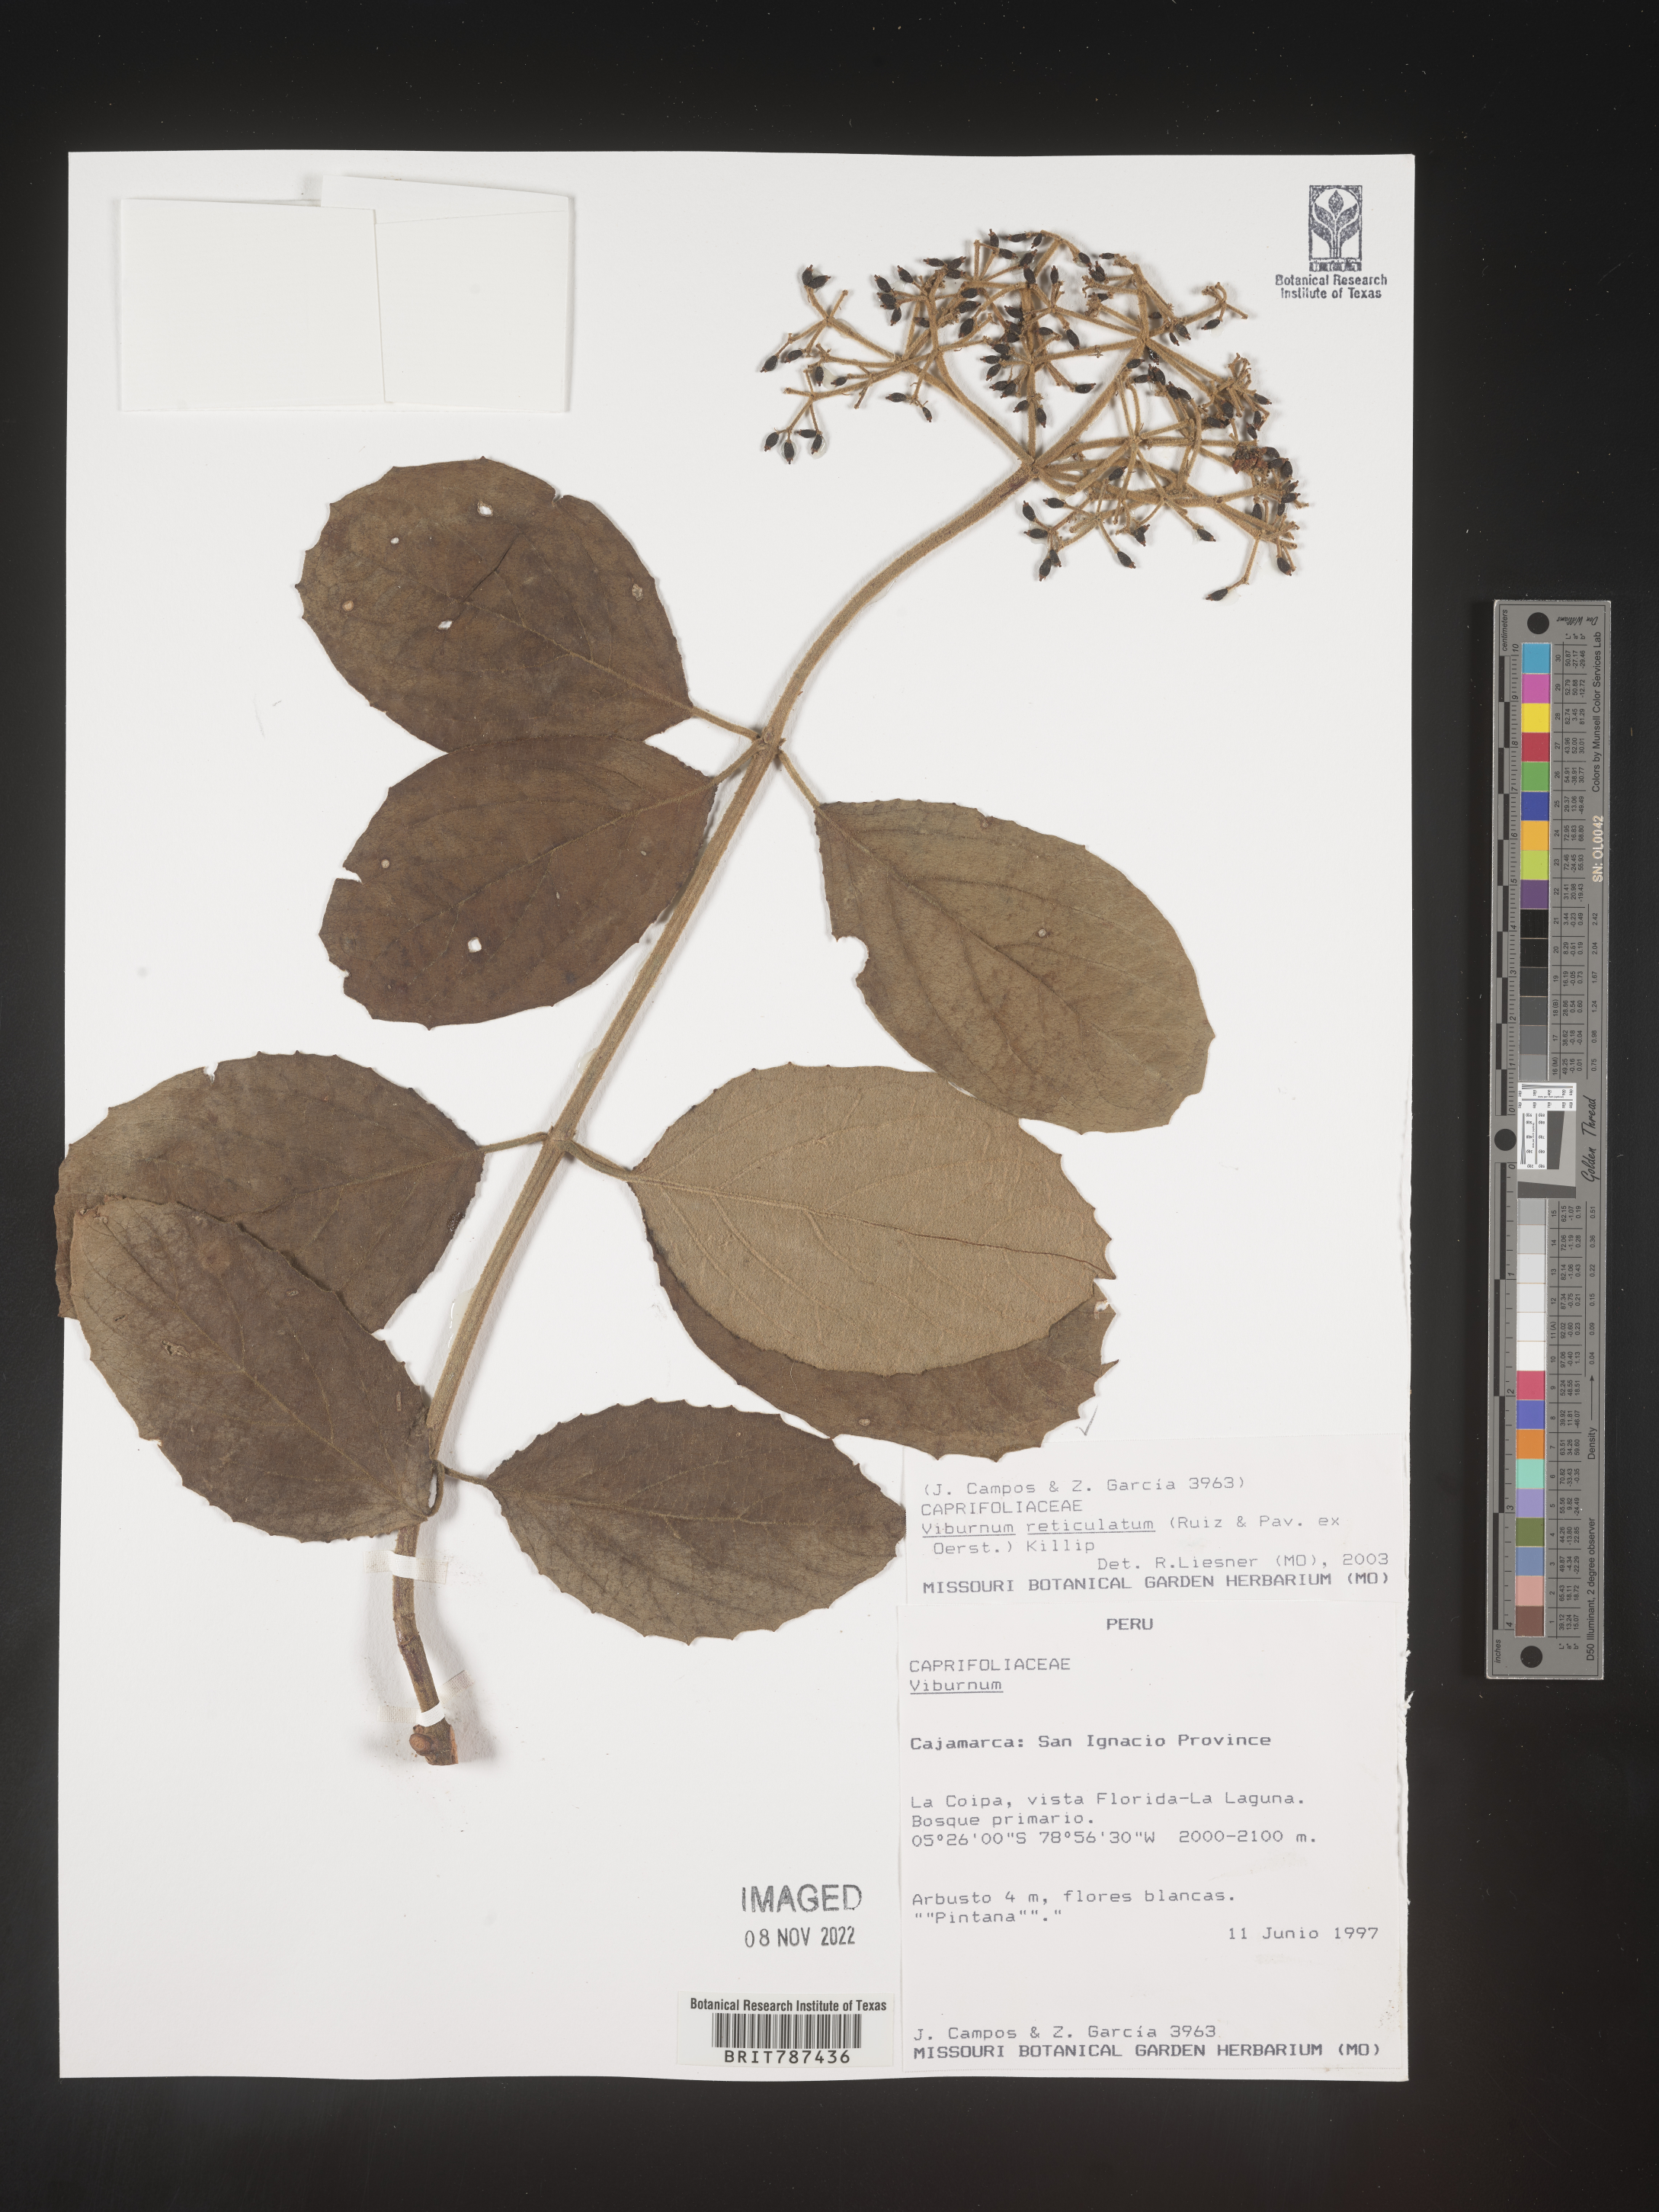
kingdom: Plantae
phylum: Tracheophyta
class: Magnoliopsida
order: Dipsacales
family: Viburnaceae
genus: Viburnum
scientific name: Viburnum
